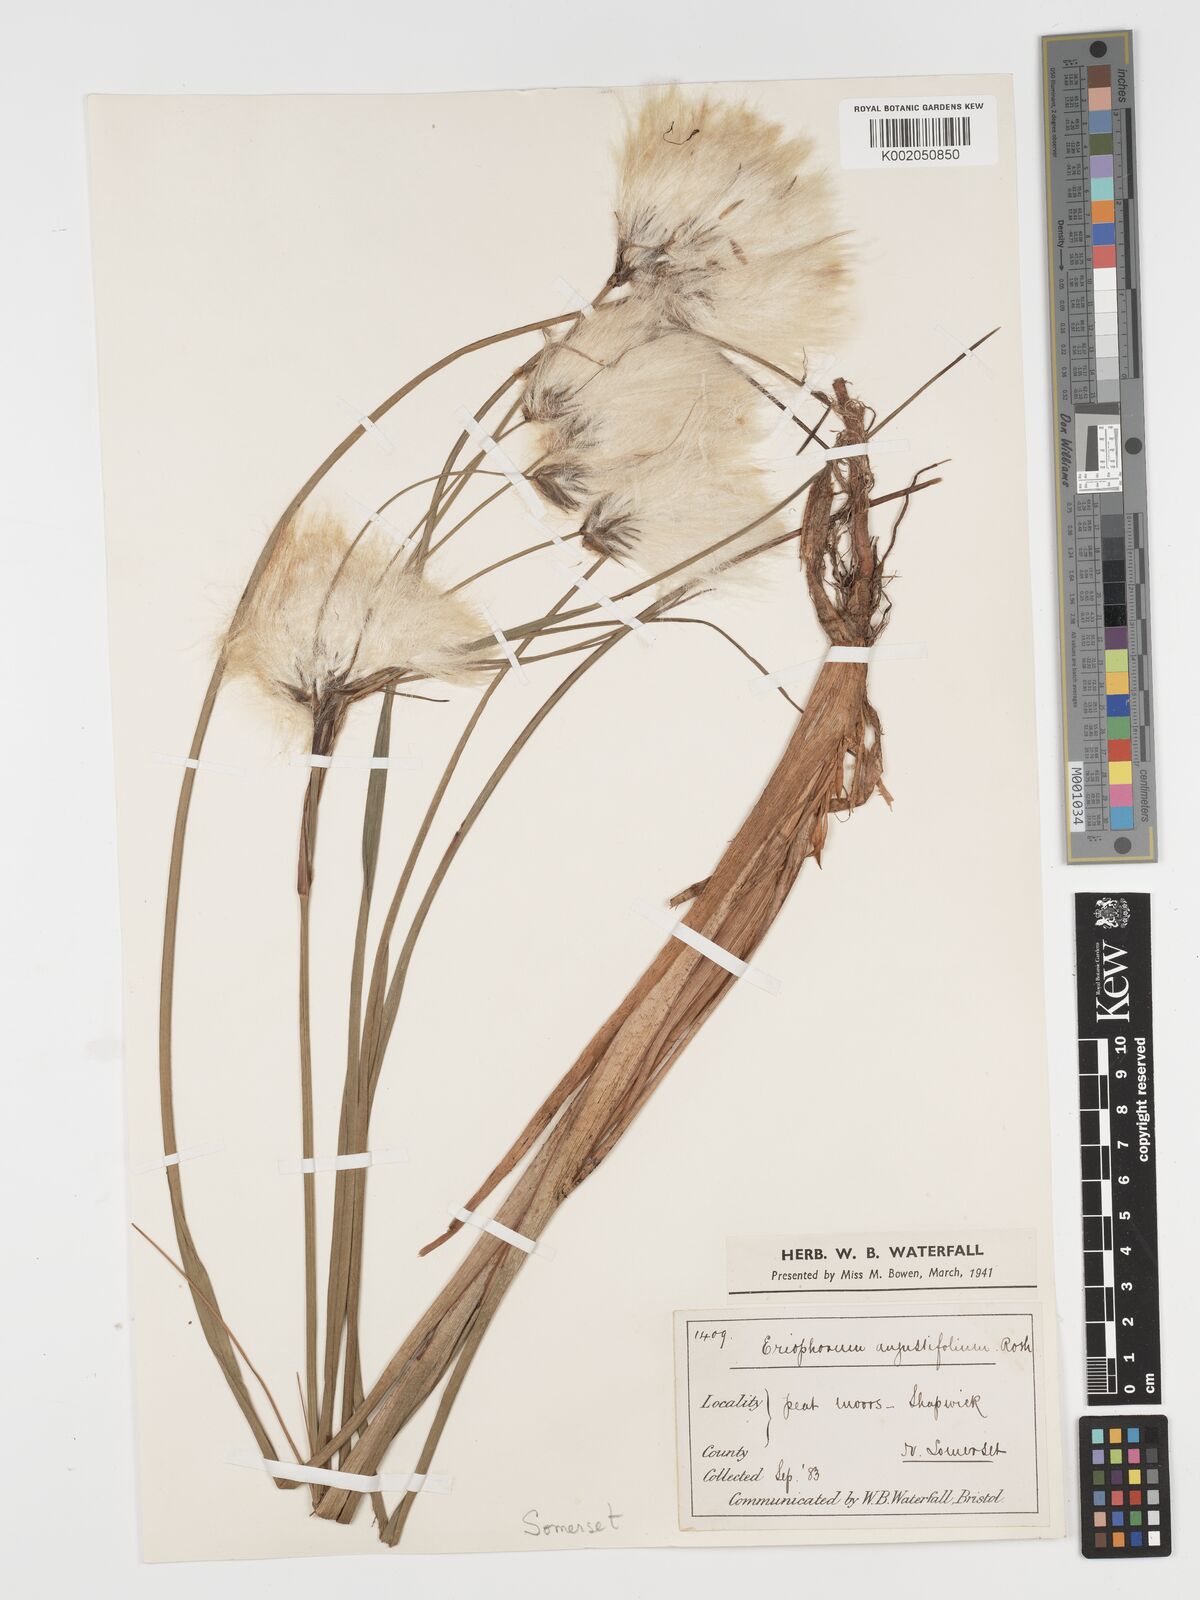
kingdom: Plantae
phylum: Tracheophyta
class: Liliopsida
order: Poales
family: Cyperaceae
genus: Eriophorum
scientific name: Eriophorum angustifolium
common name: Common cottongrass
